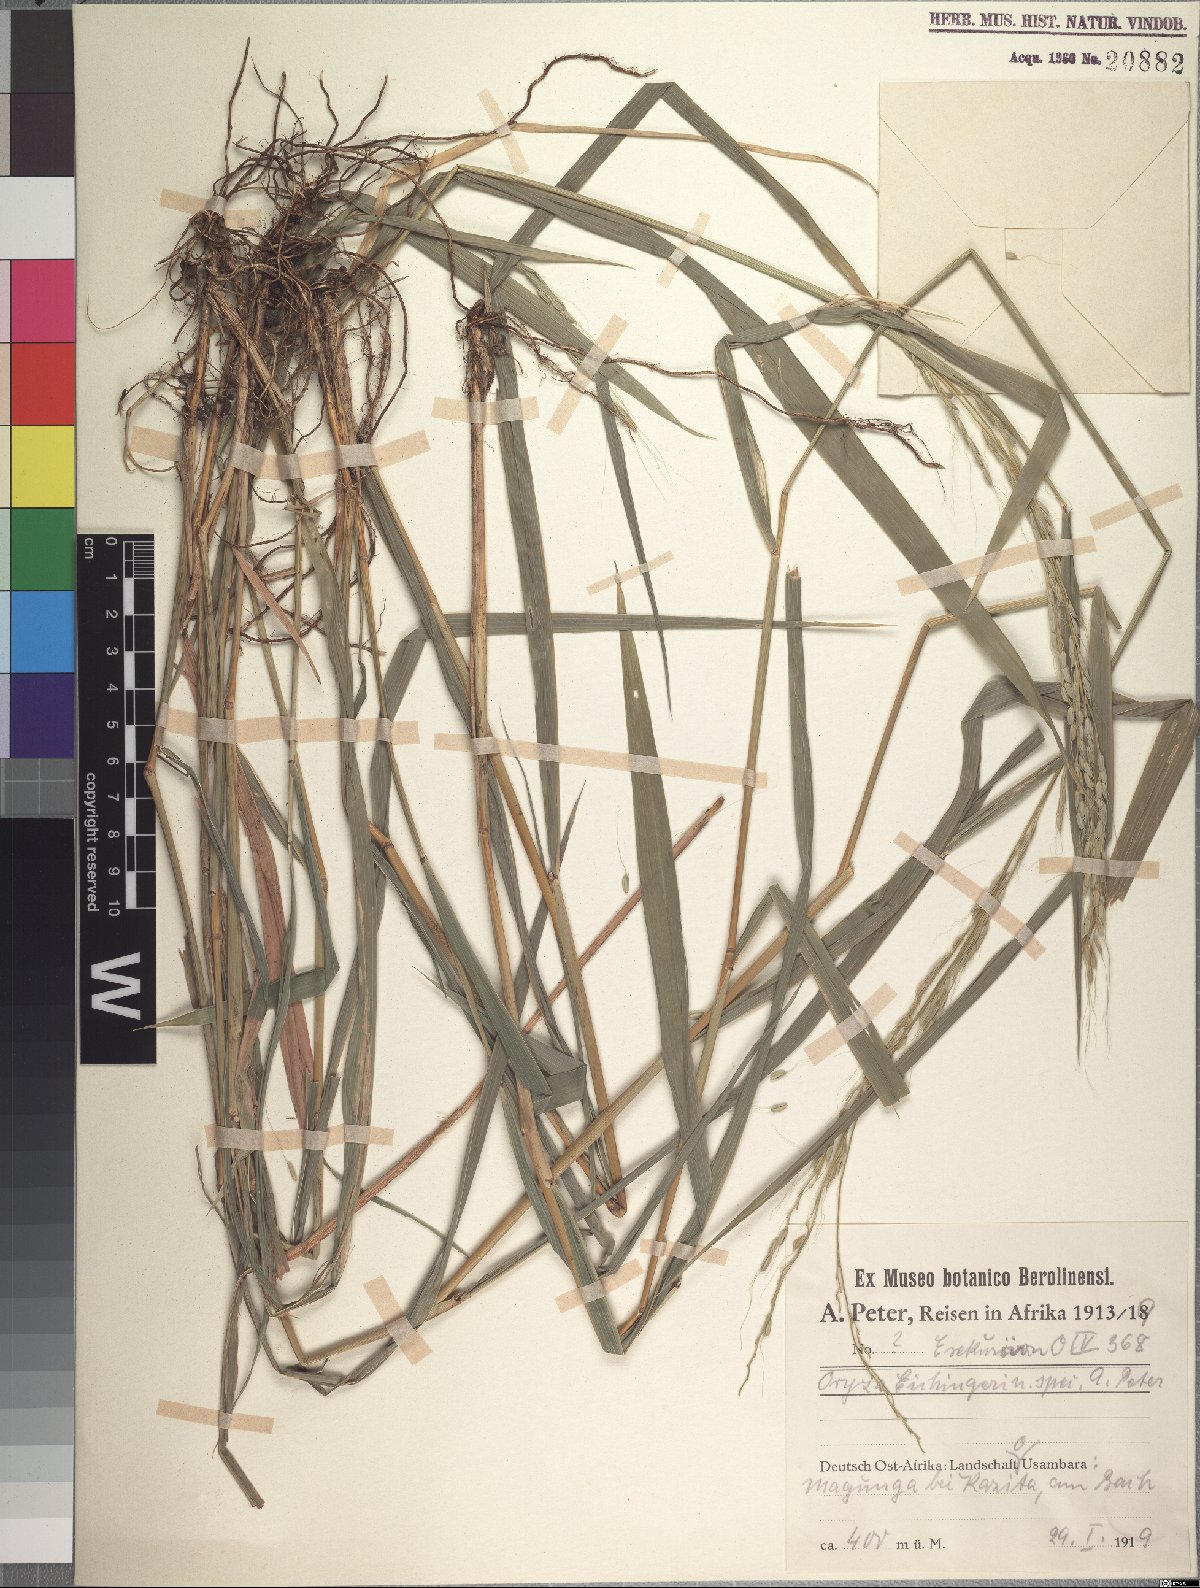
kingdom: Plantae
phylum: Tracheophyta
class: Liliopsida
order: Poales
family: Poaceae
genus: Oryza
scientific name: Oryza eichingeri
